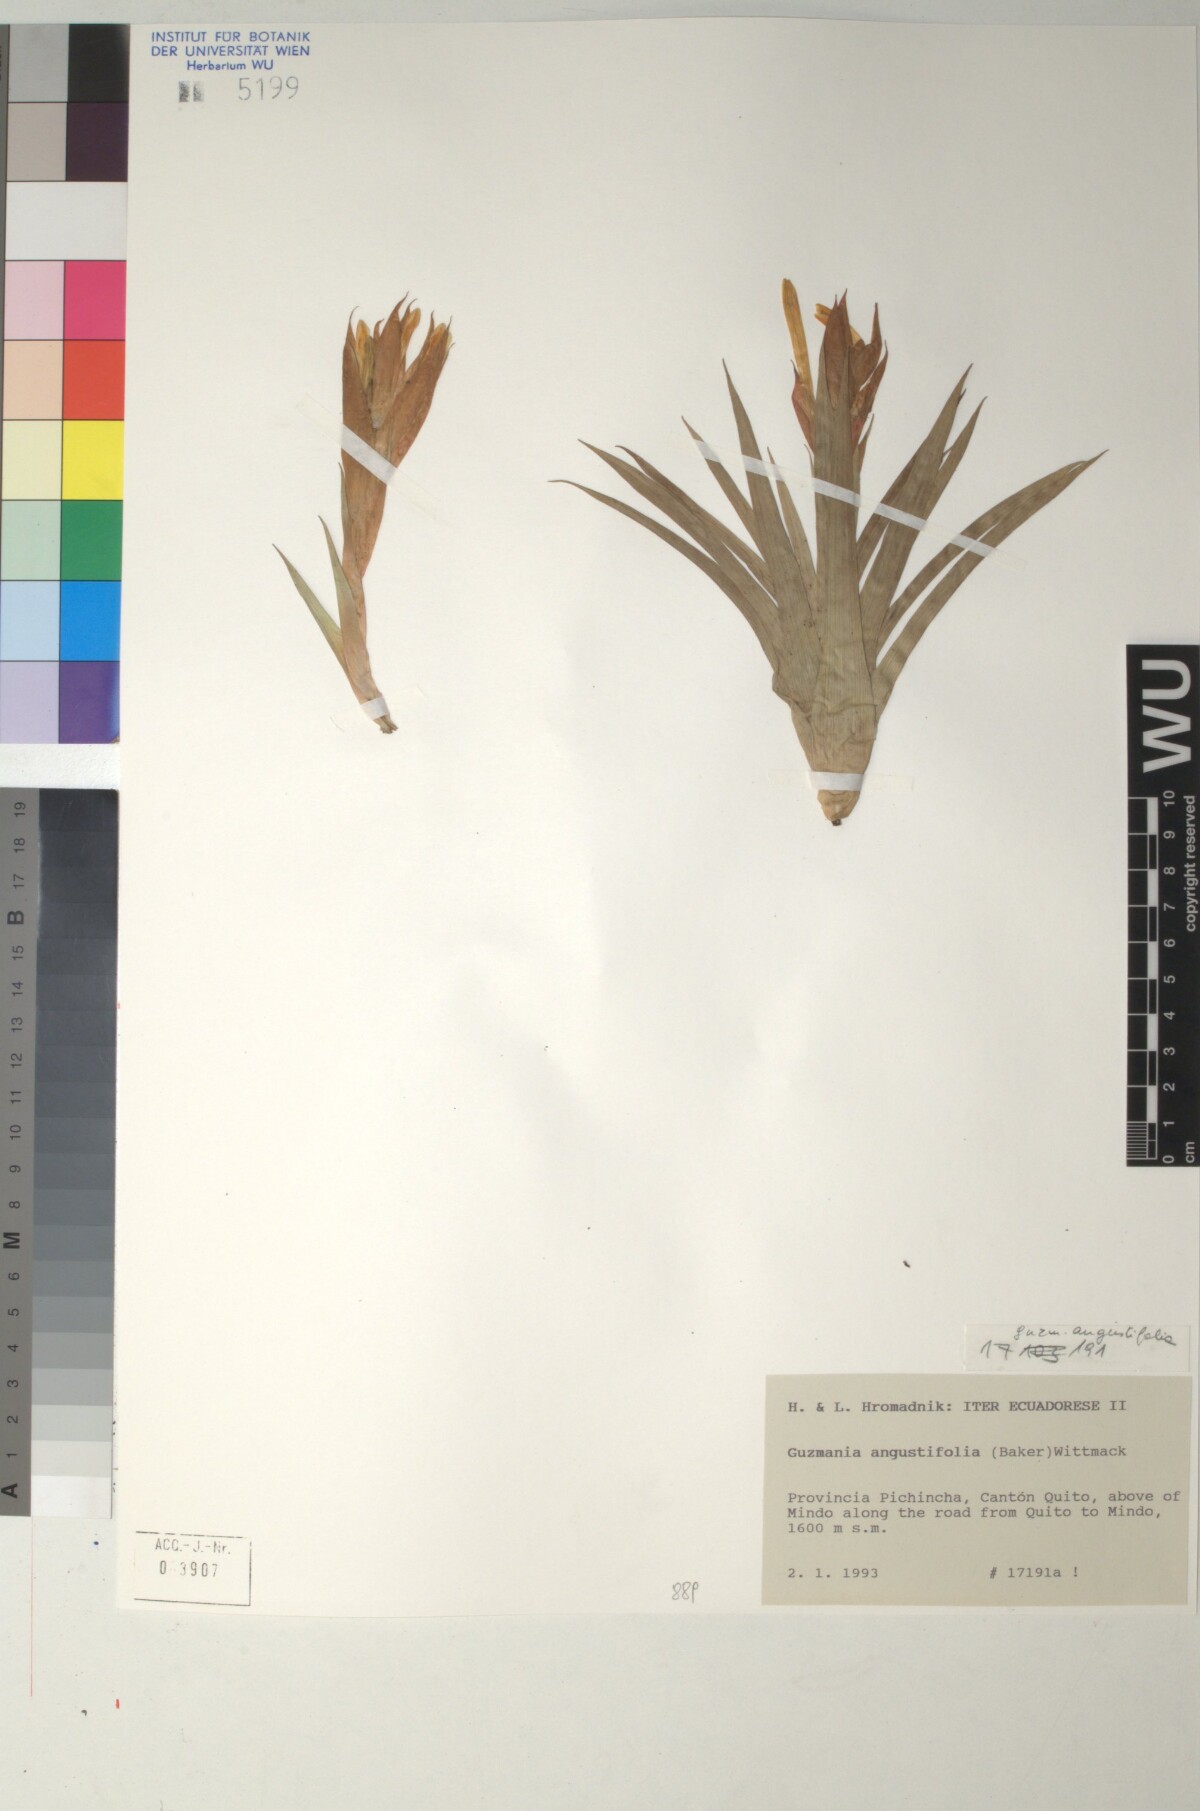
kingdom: Plantae
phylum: Tracheophyta
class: Liliopsida
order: Poales
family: Bromeliaceae
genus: Guzmania
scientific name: Guzmania angustifolia
